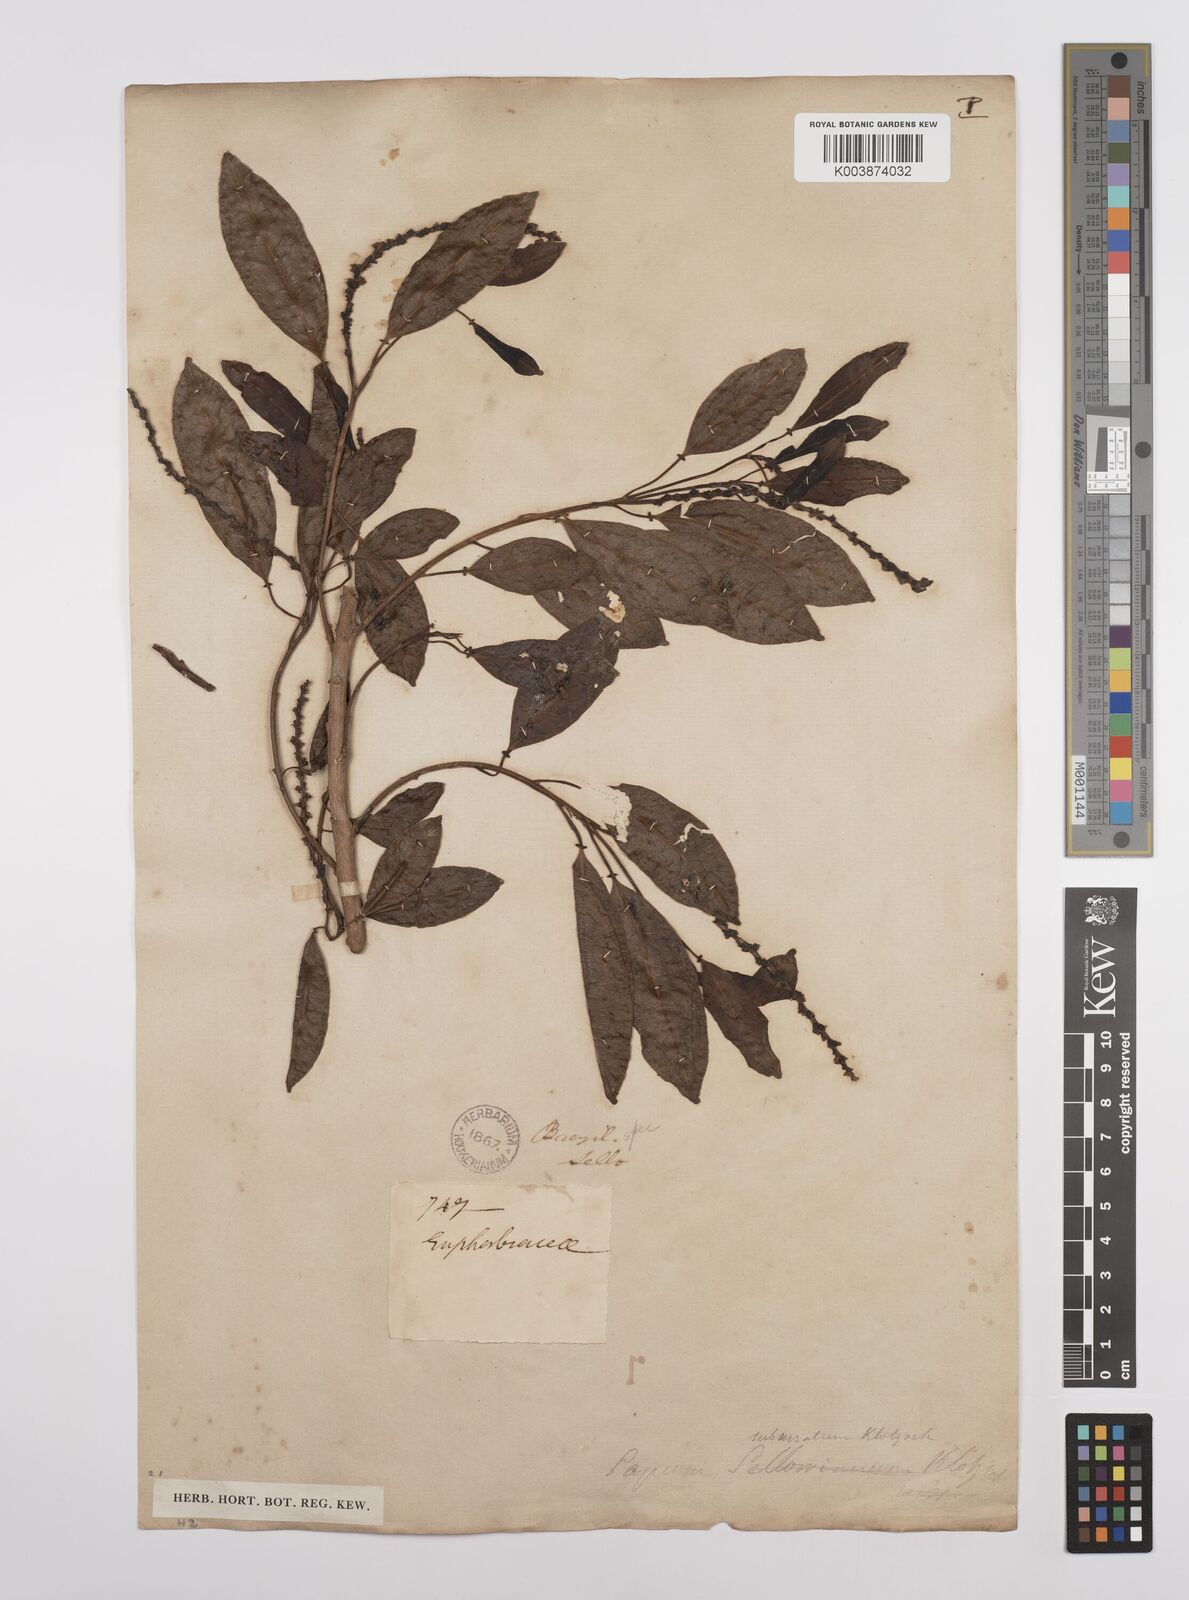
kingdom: Plantae
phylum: Tracheophyta
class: Magnoliopsida
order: Malpighiales
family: Euphorbiaceae
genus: Sapium
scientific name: Sapium glandulosum
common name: Milktree
